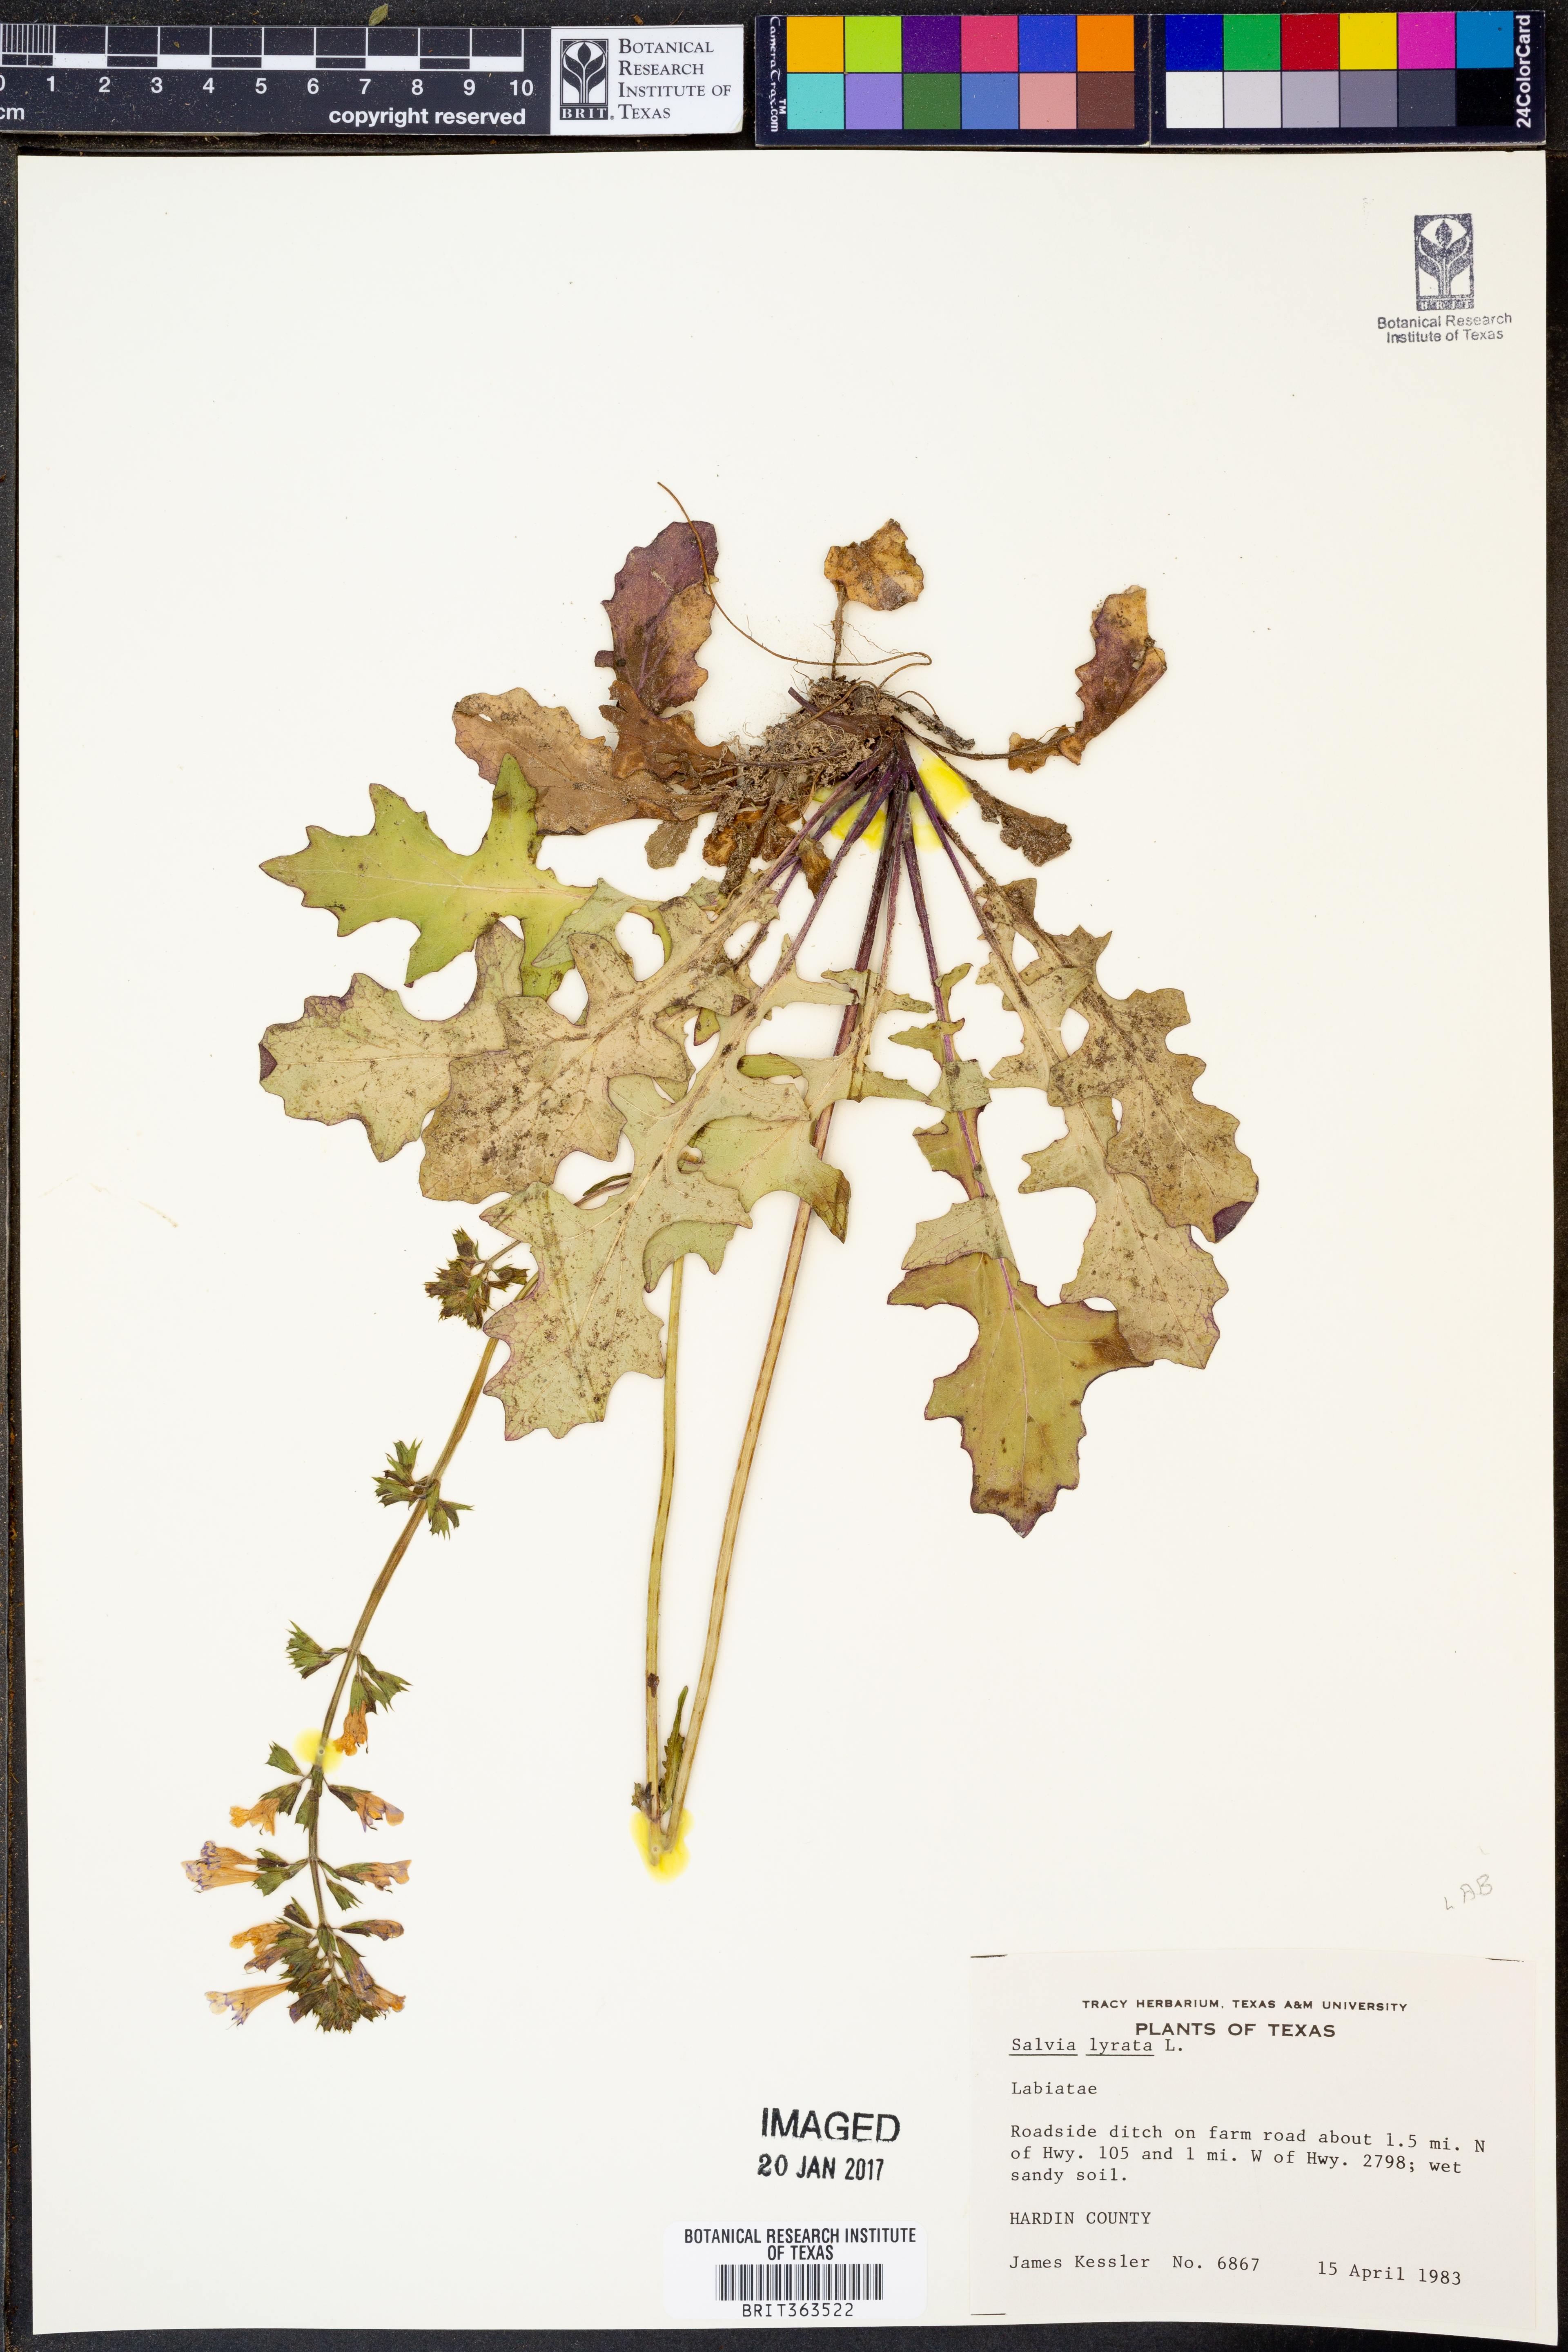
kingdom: Plantae
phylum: Tracheophyta
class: Magnoliopsida
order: Lamiales
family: Lamiaceae
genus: Salvia
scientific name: Salvia lyrata
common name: Cancerweed
